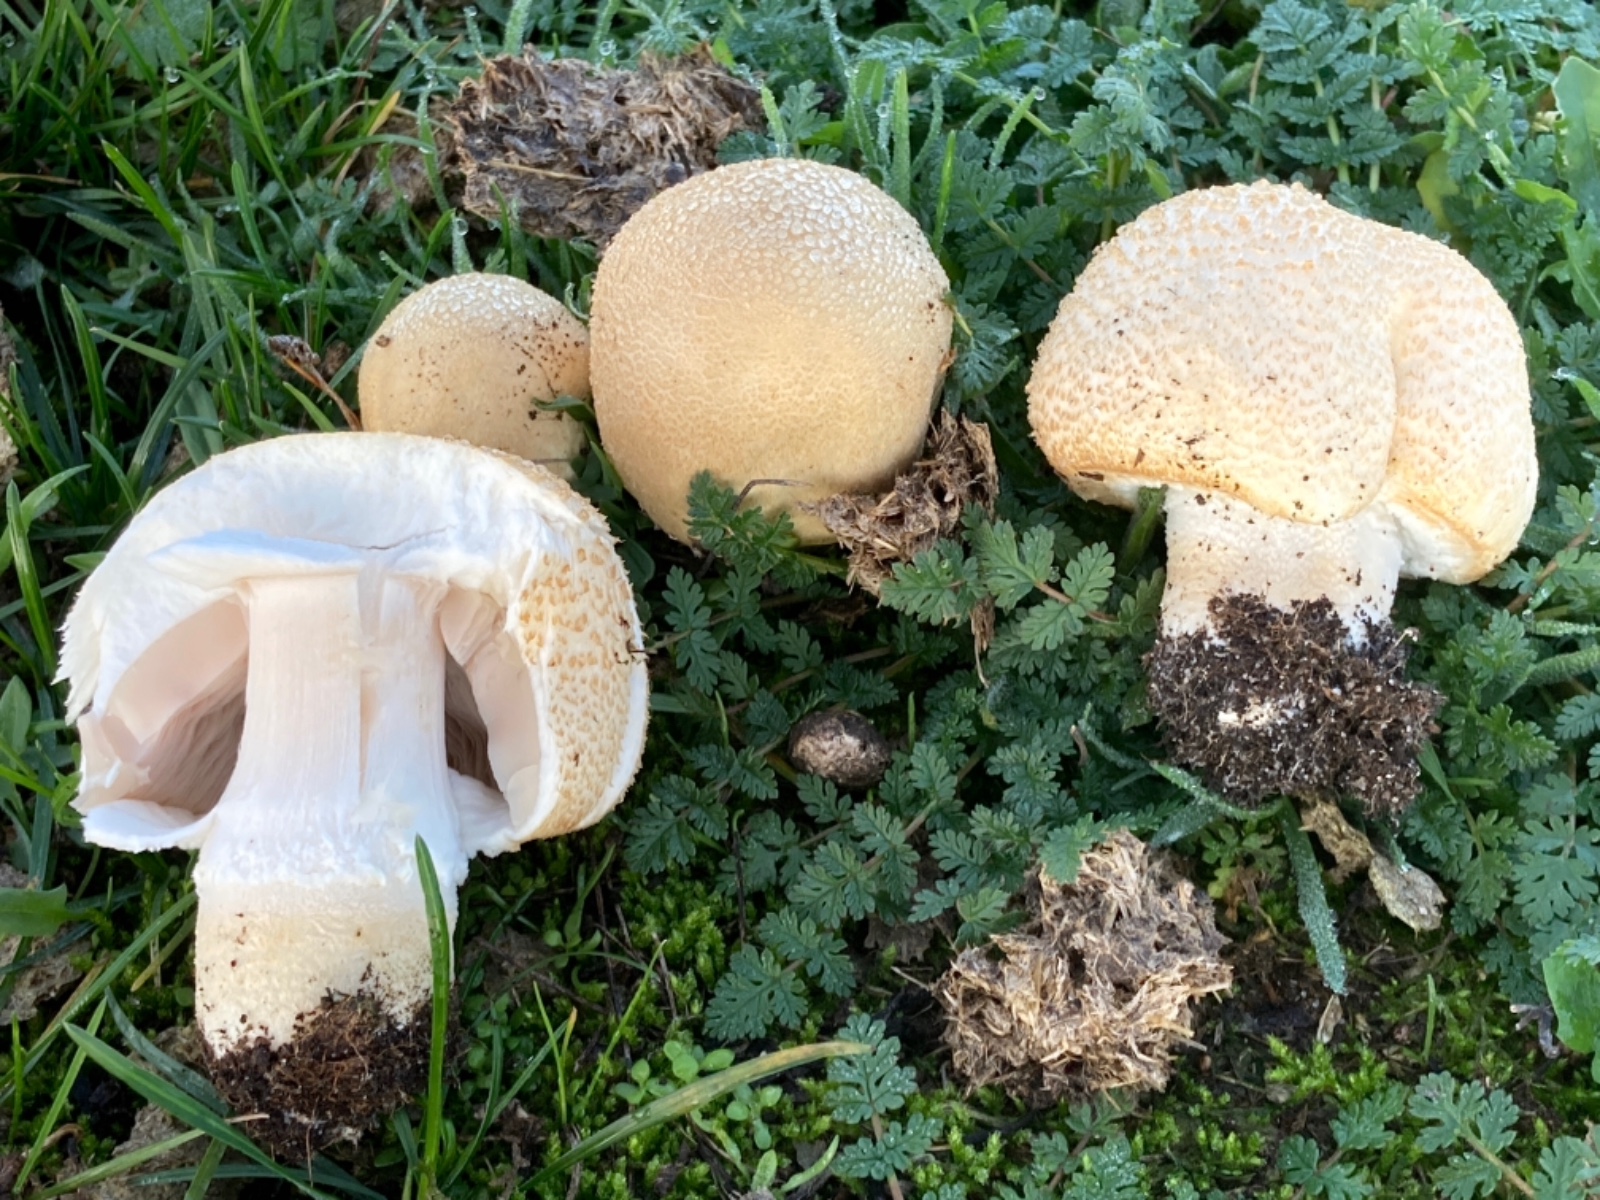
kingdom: Fungi
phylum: Basidiomycota
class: Agaricomycetes
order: Agaricales
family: Agaricaceae
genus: Agaricus
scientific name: Agaricus
